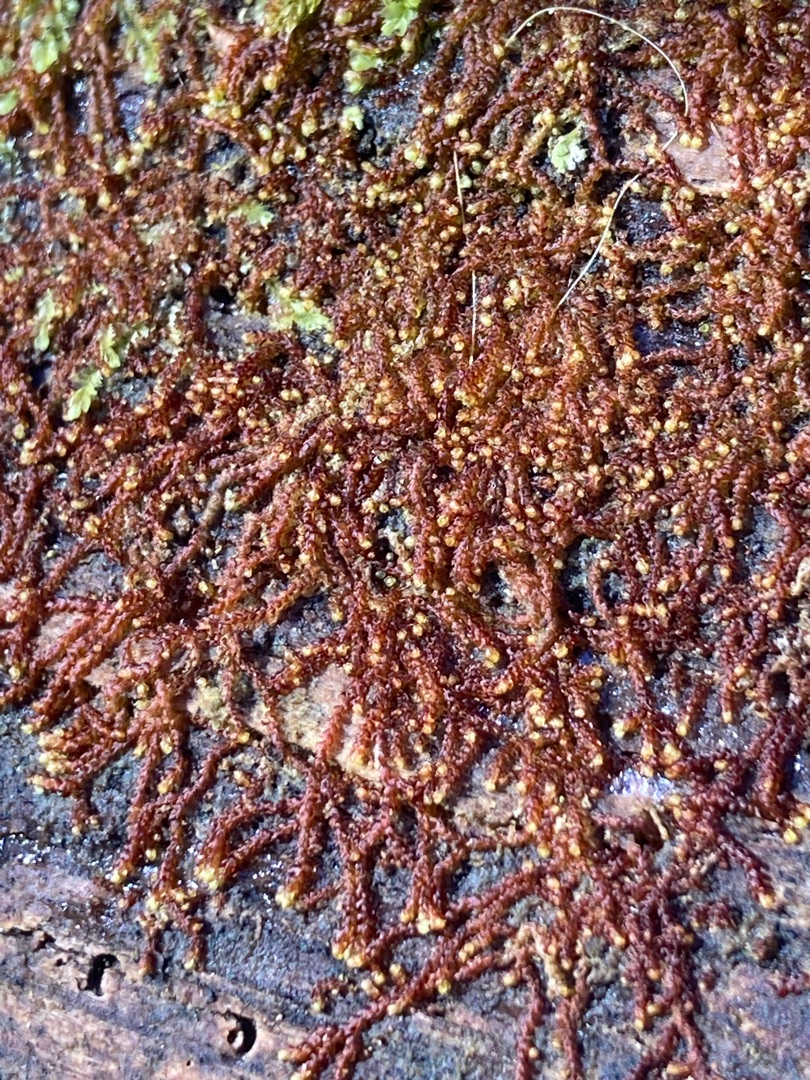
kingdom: Plantae
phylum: Marchantiophyta
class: Jungermanniopsida
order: Jungermanniales
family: Cephaloziaceae
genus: Nowellia
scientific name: Nowellia curvifolia
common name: Krumbladet stødmos
